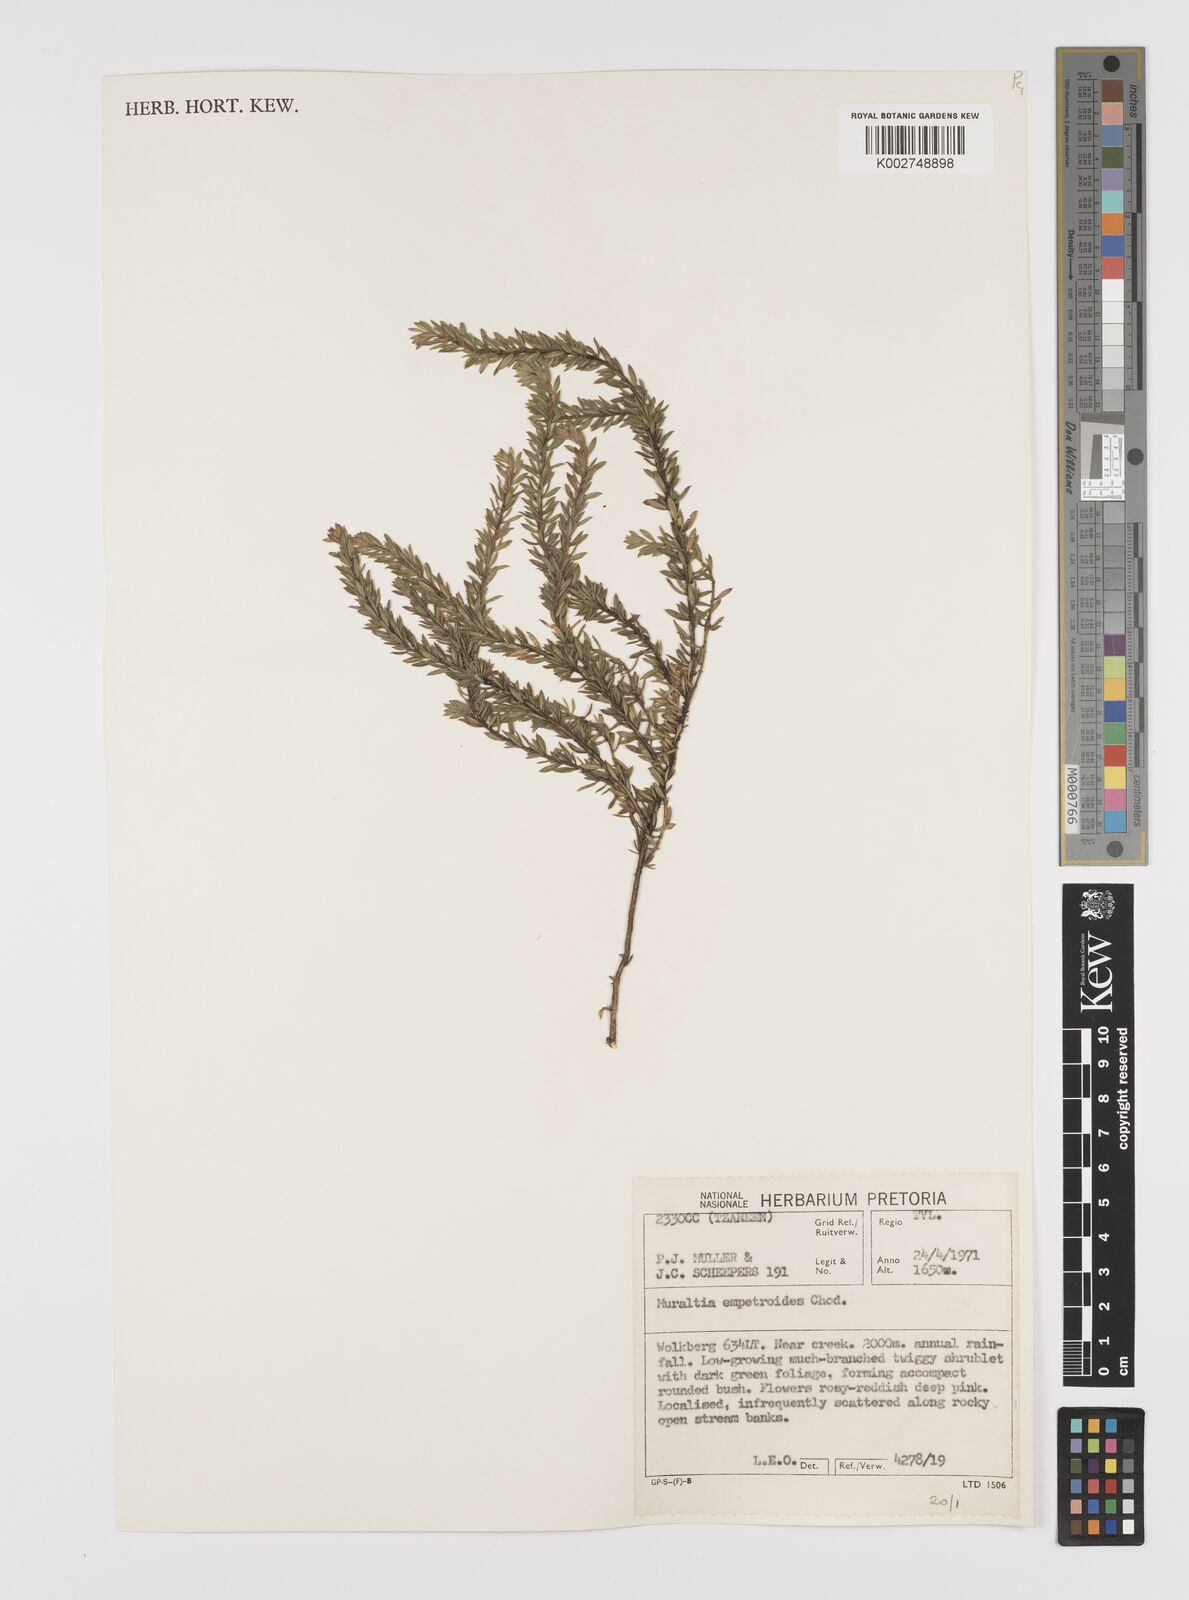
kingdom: Plantae
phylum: Tracheophyta
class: Magnoliopsida
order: Fabales
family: Polygalaceae
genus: Muraltia
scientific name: Muraltia empetroides
